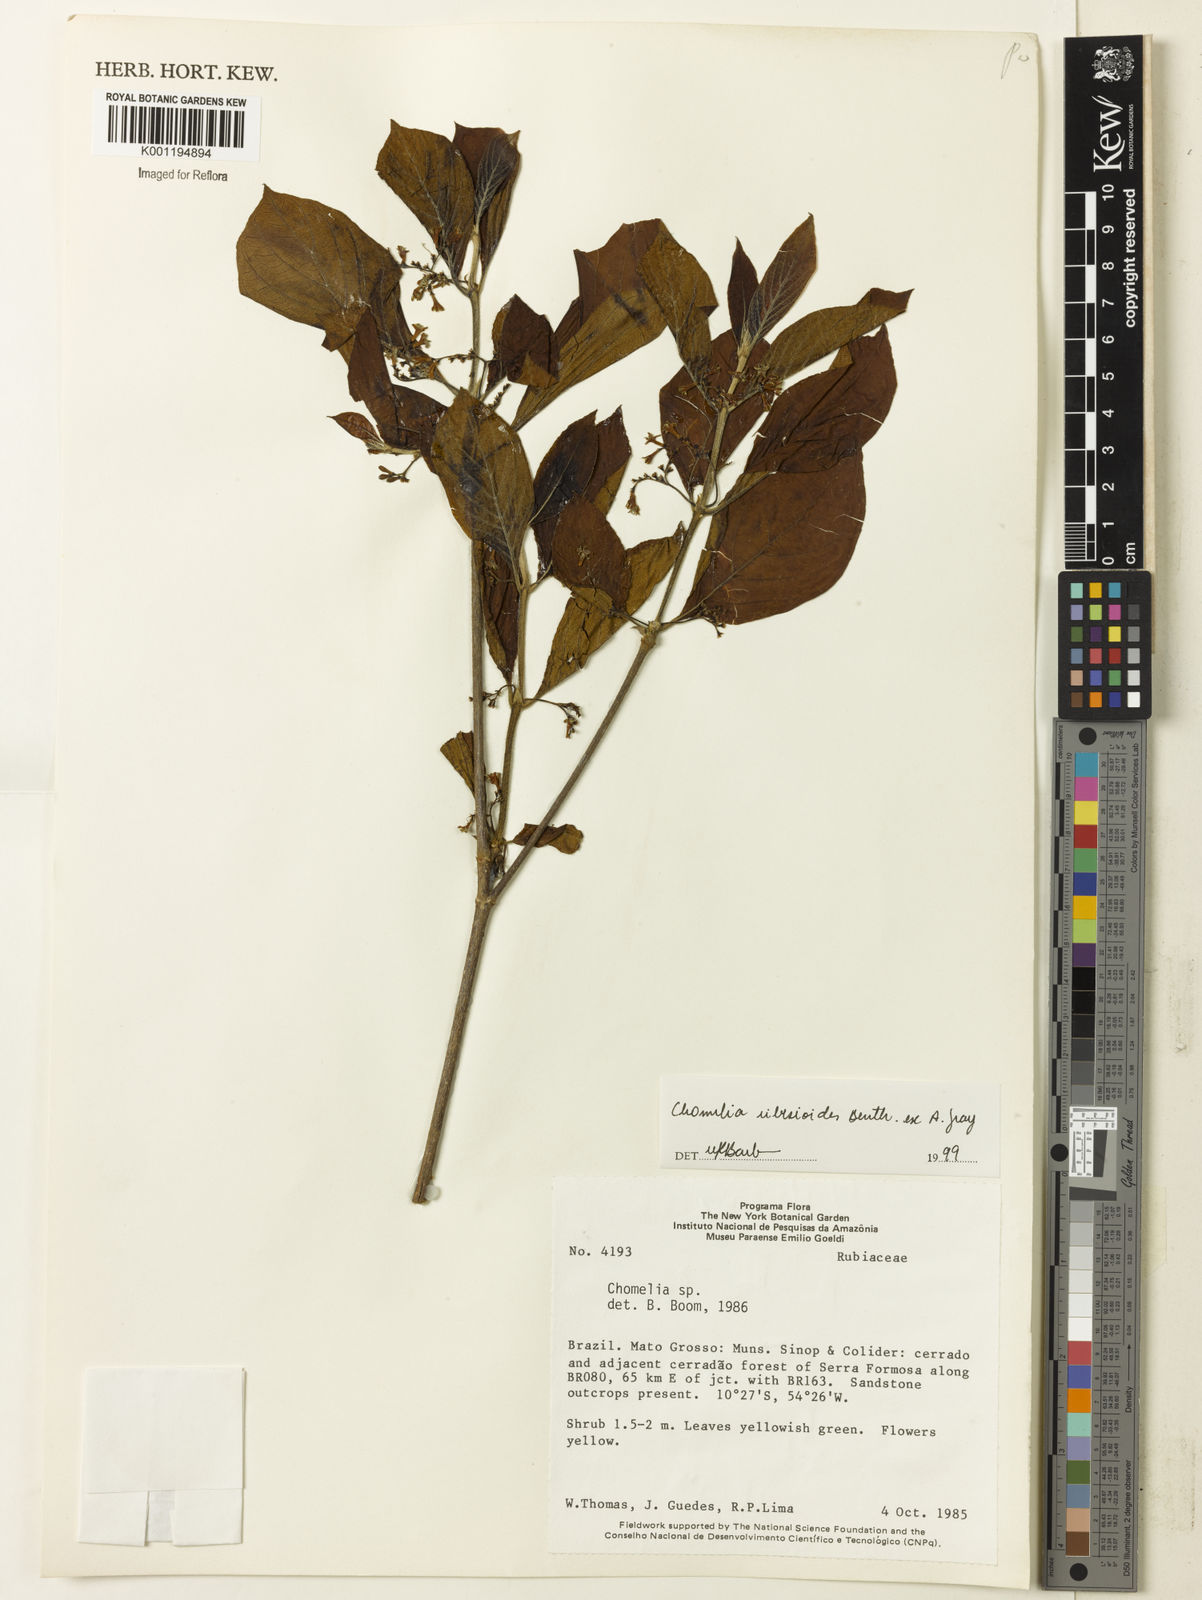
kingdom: Plantae
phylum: Tracheophyta
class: Magnoliopsida
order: Gentianales
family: Rubiaceae
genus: Chomelia
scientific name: Chomelia ribesioides
